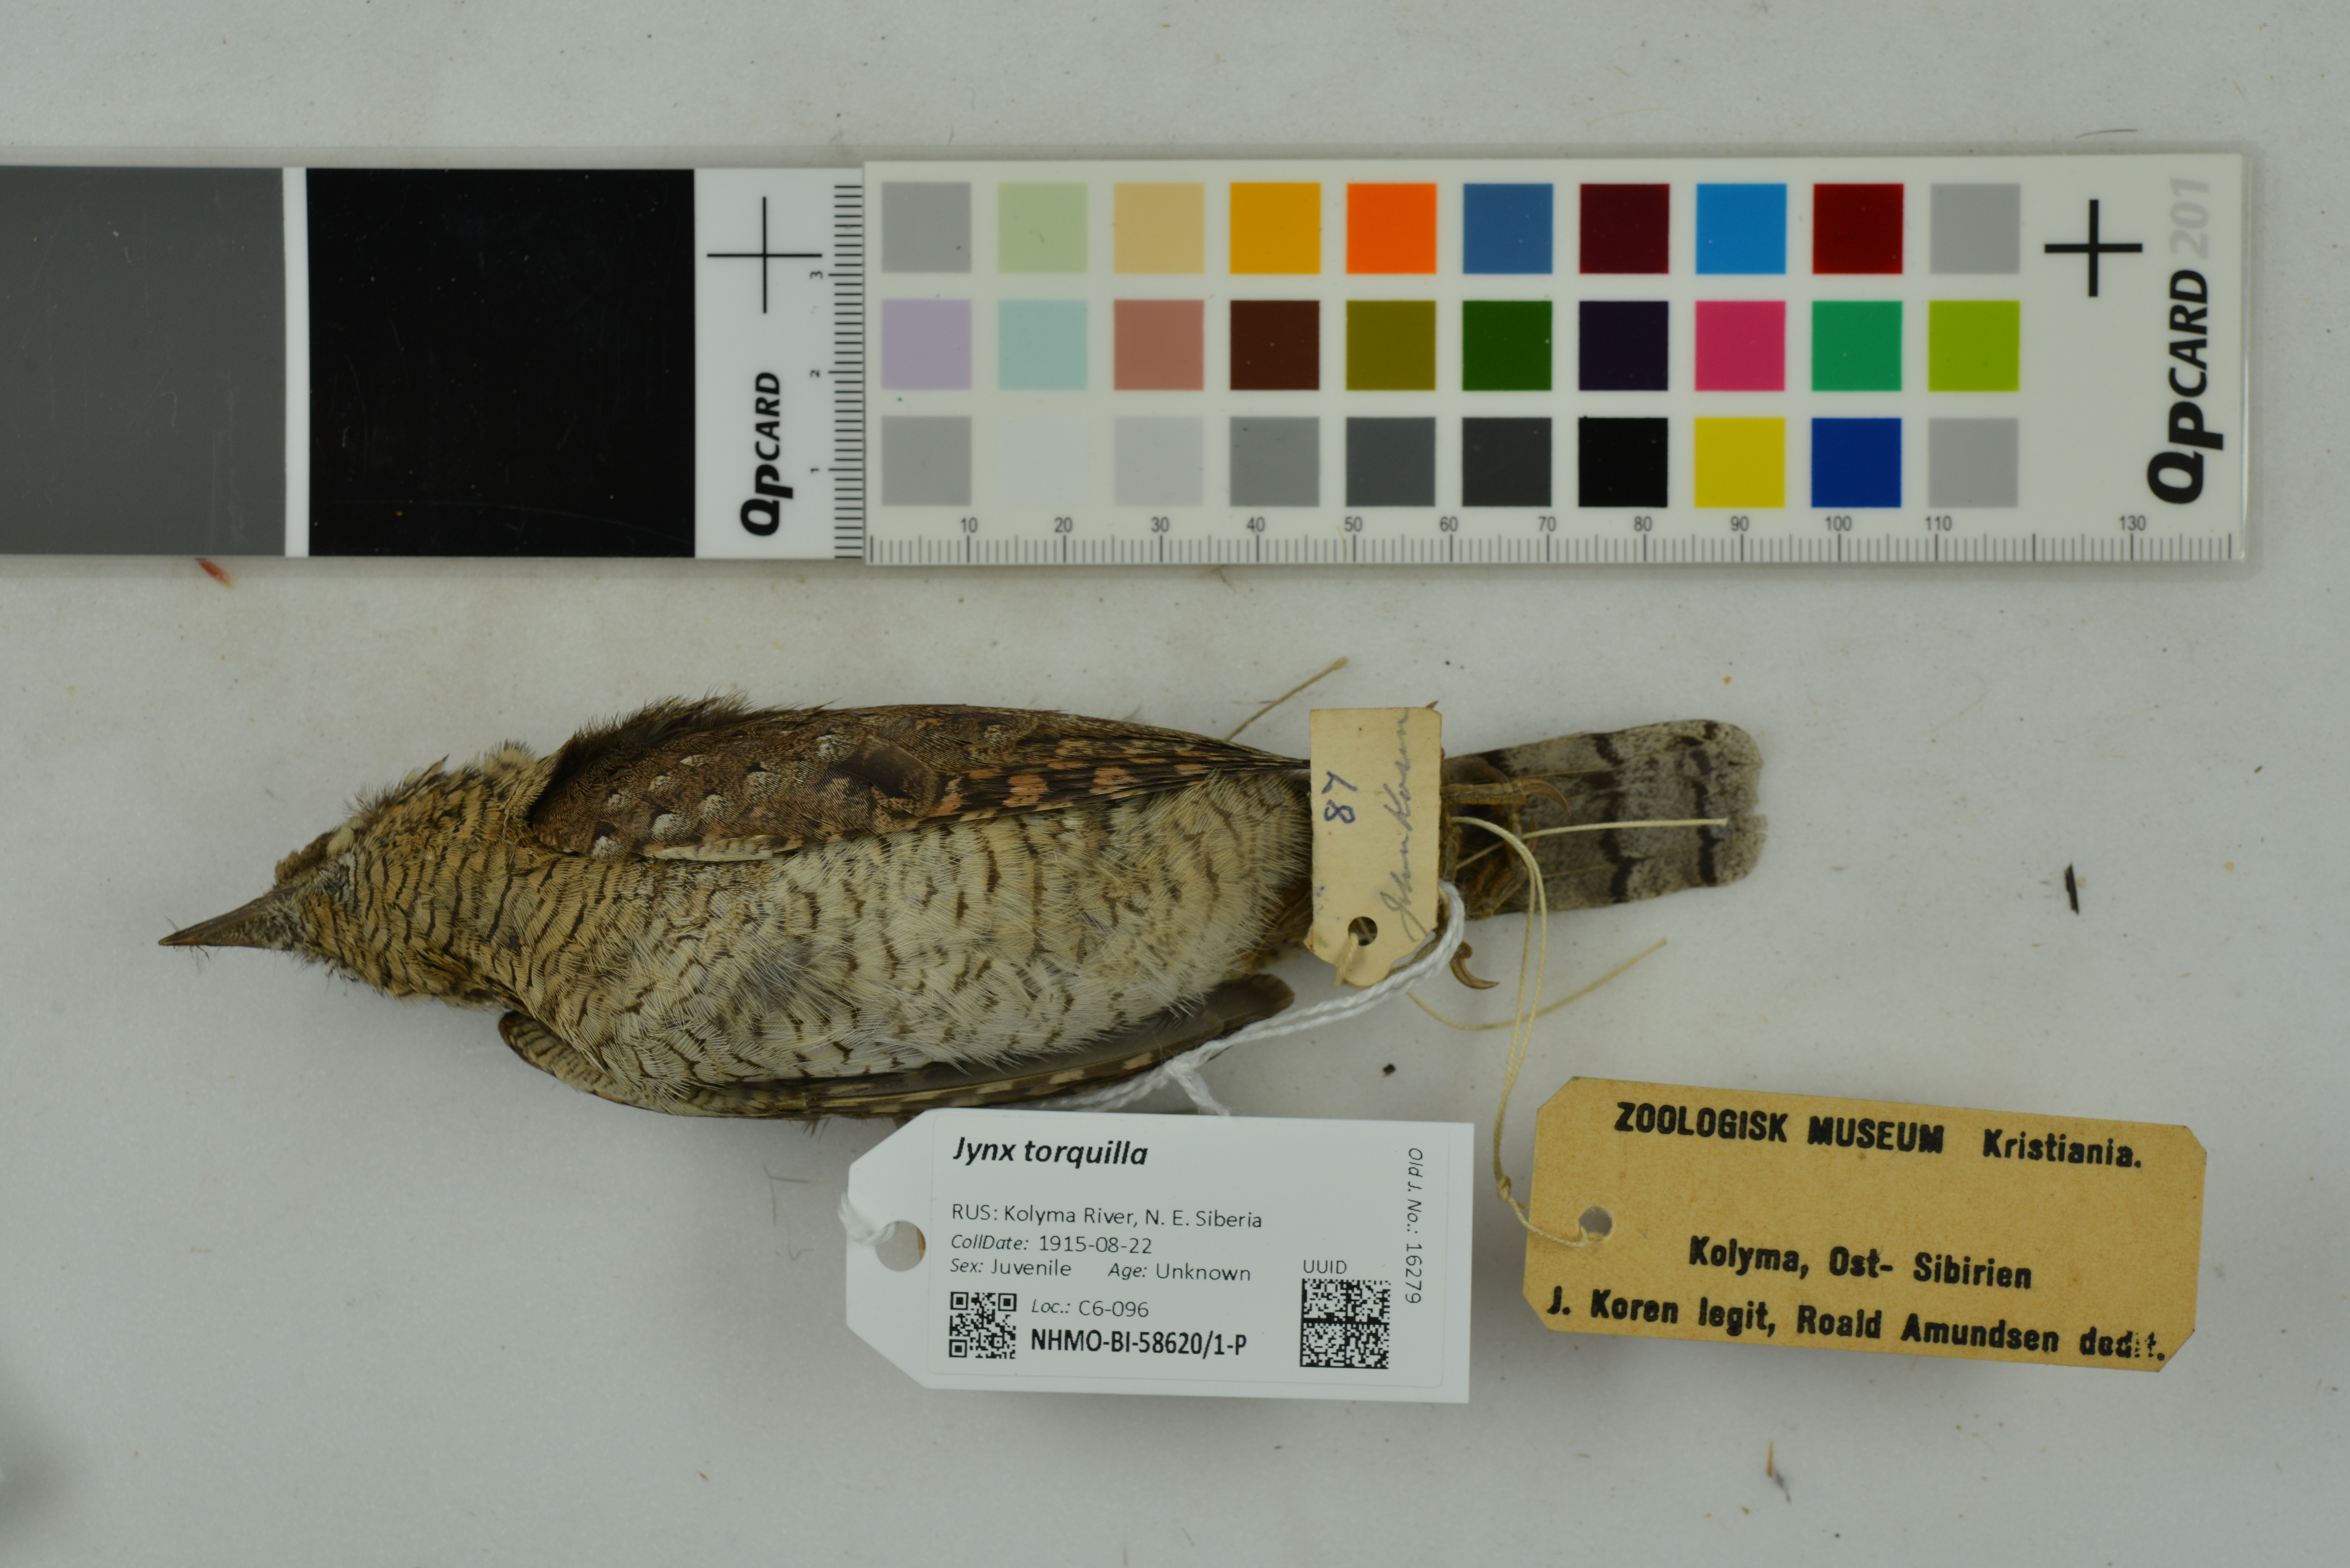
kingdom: Animalia
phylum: Chordata
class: Aves
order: Piciformes
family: Picidae
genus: Jynx
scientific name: Jynx torquilla
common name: Eurasian wryneck
